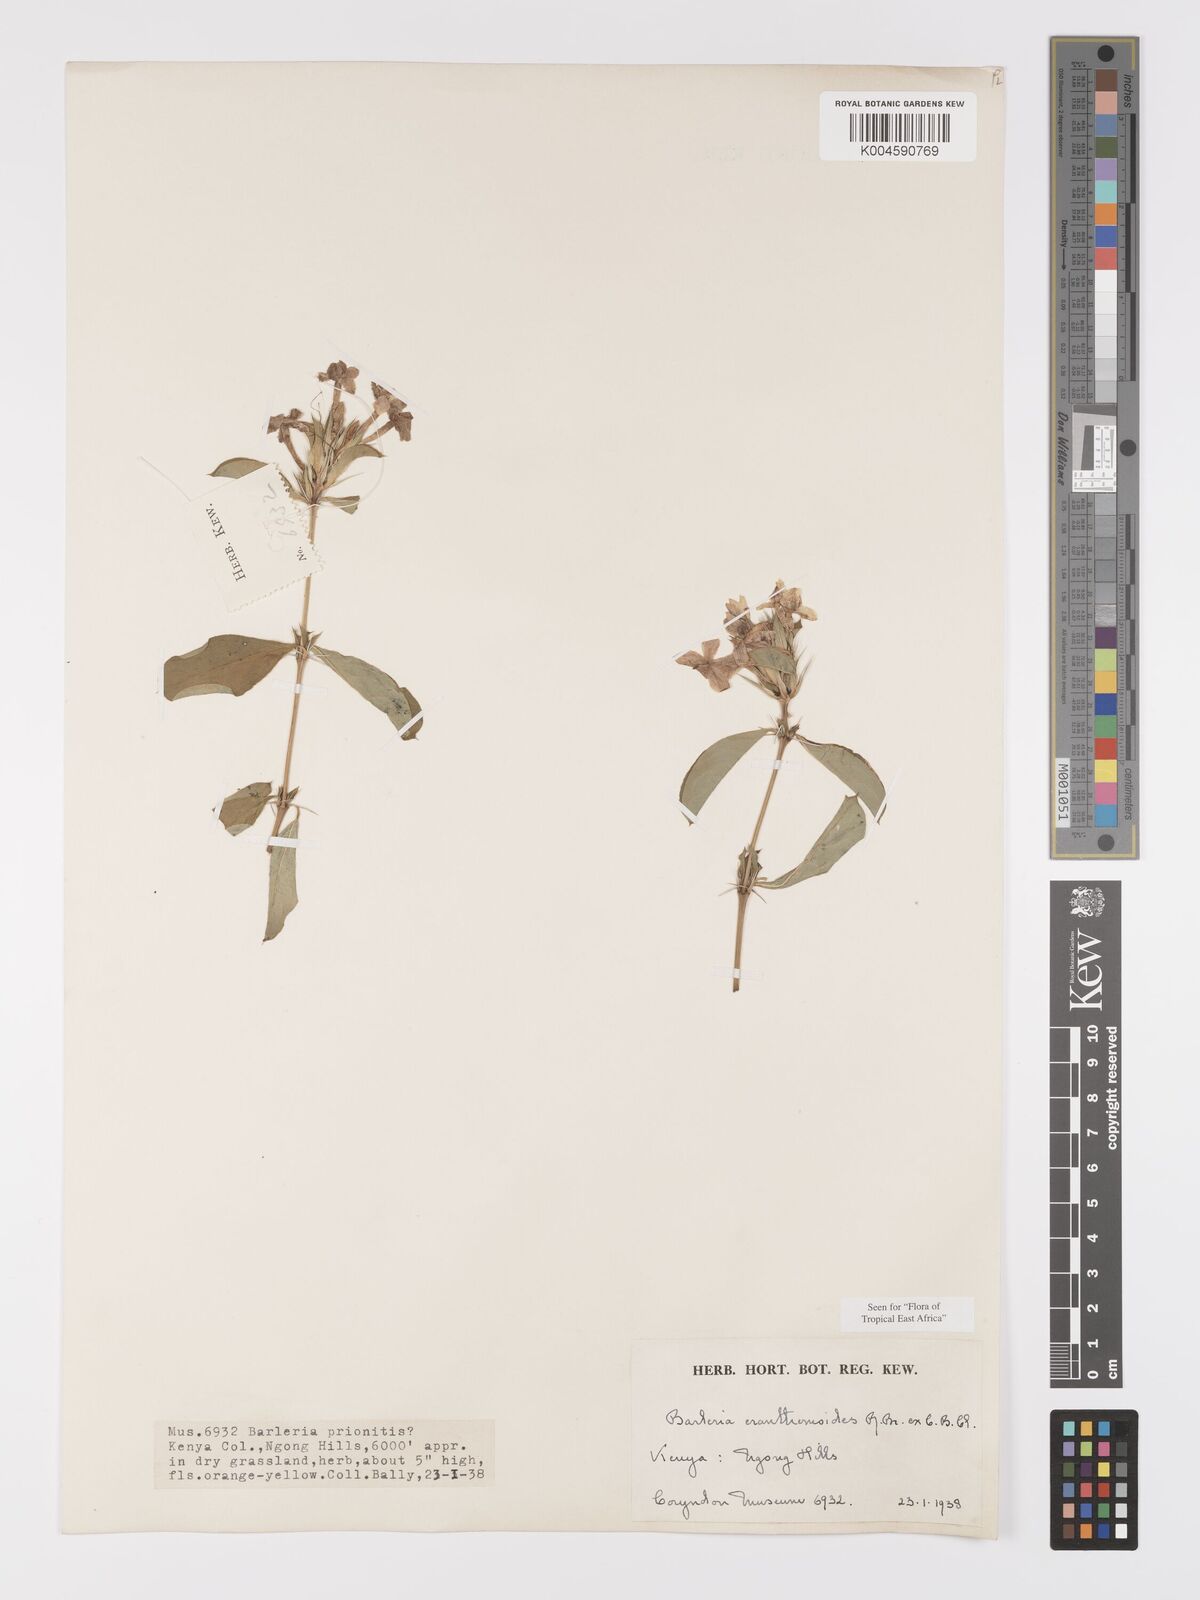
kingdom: Plantae
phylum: Tracheophyta
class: Magnoliopsida
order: Lamiales
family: Acanthaceae
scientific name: Acanthaceae
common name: Acanthaceae
